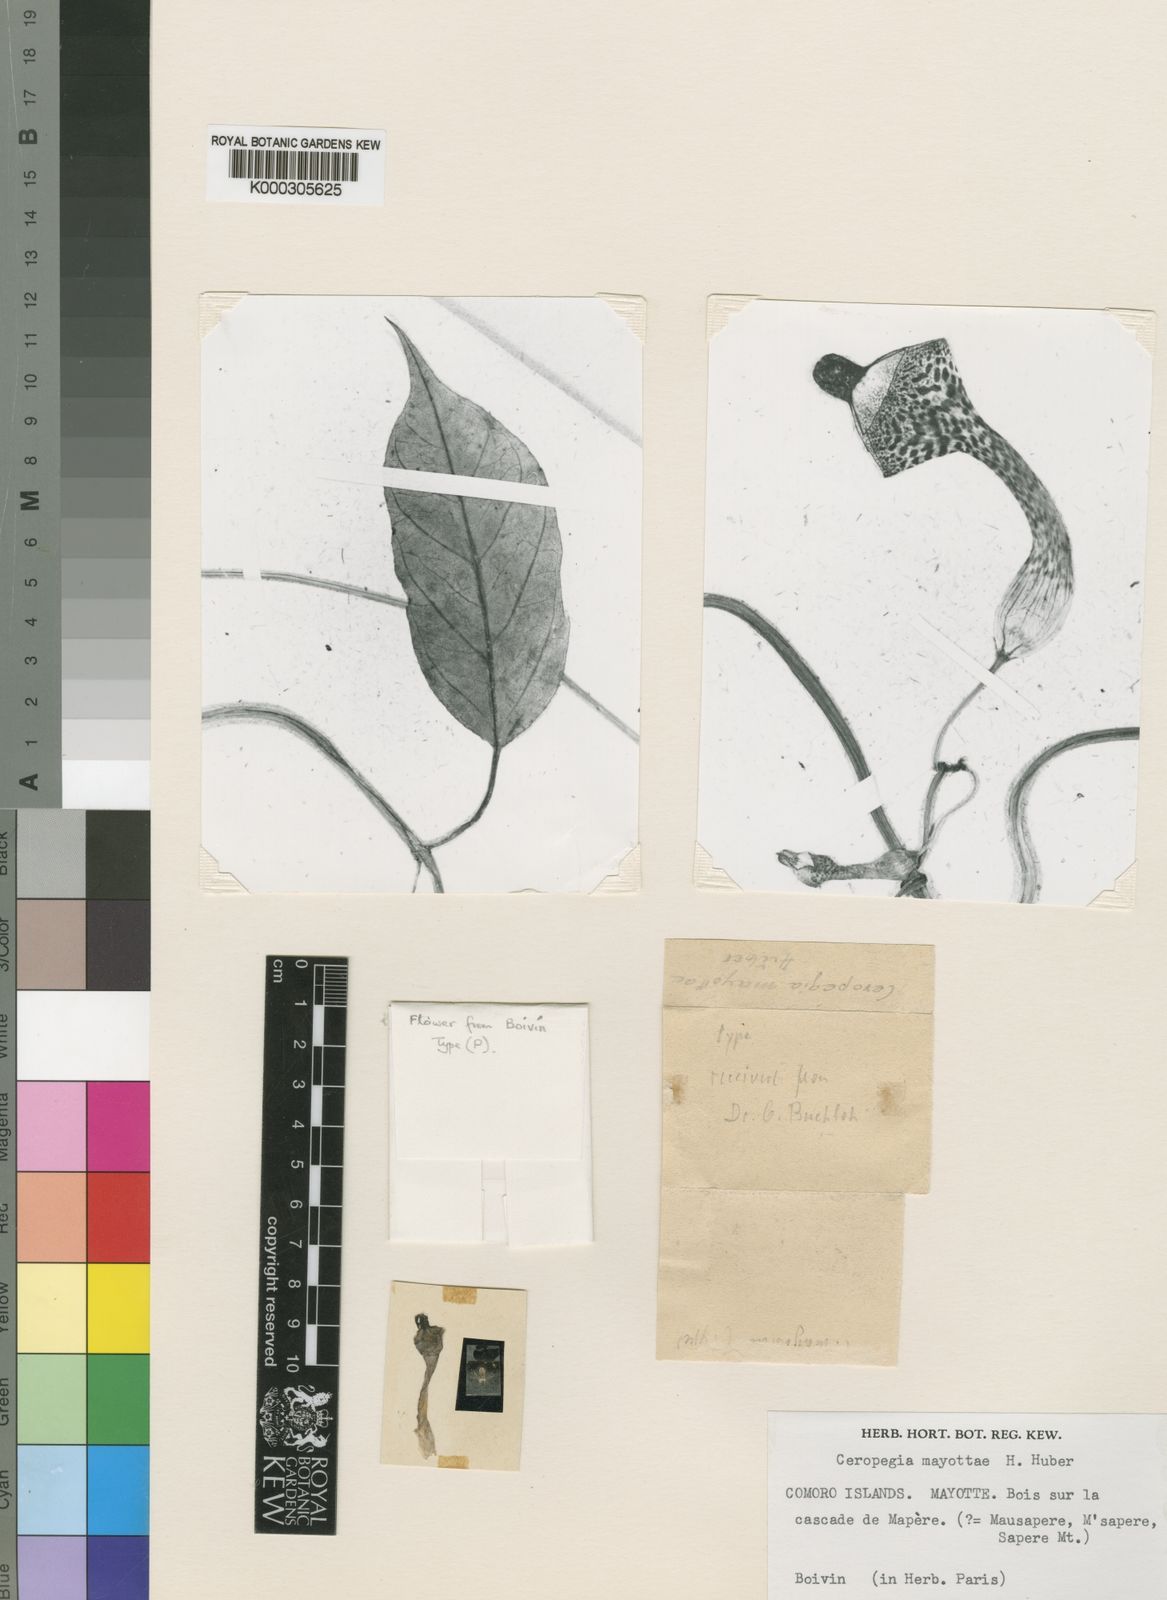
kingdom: Plantae
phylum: Tracheophyta
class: Magnoliopsida
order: Gentianales
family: Apocynaceae
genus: Ceropegia
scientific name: Ceropegia mayottae
